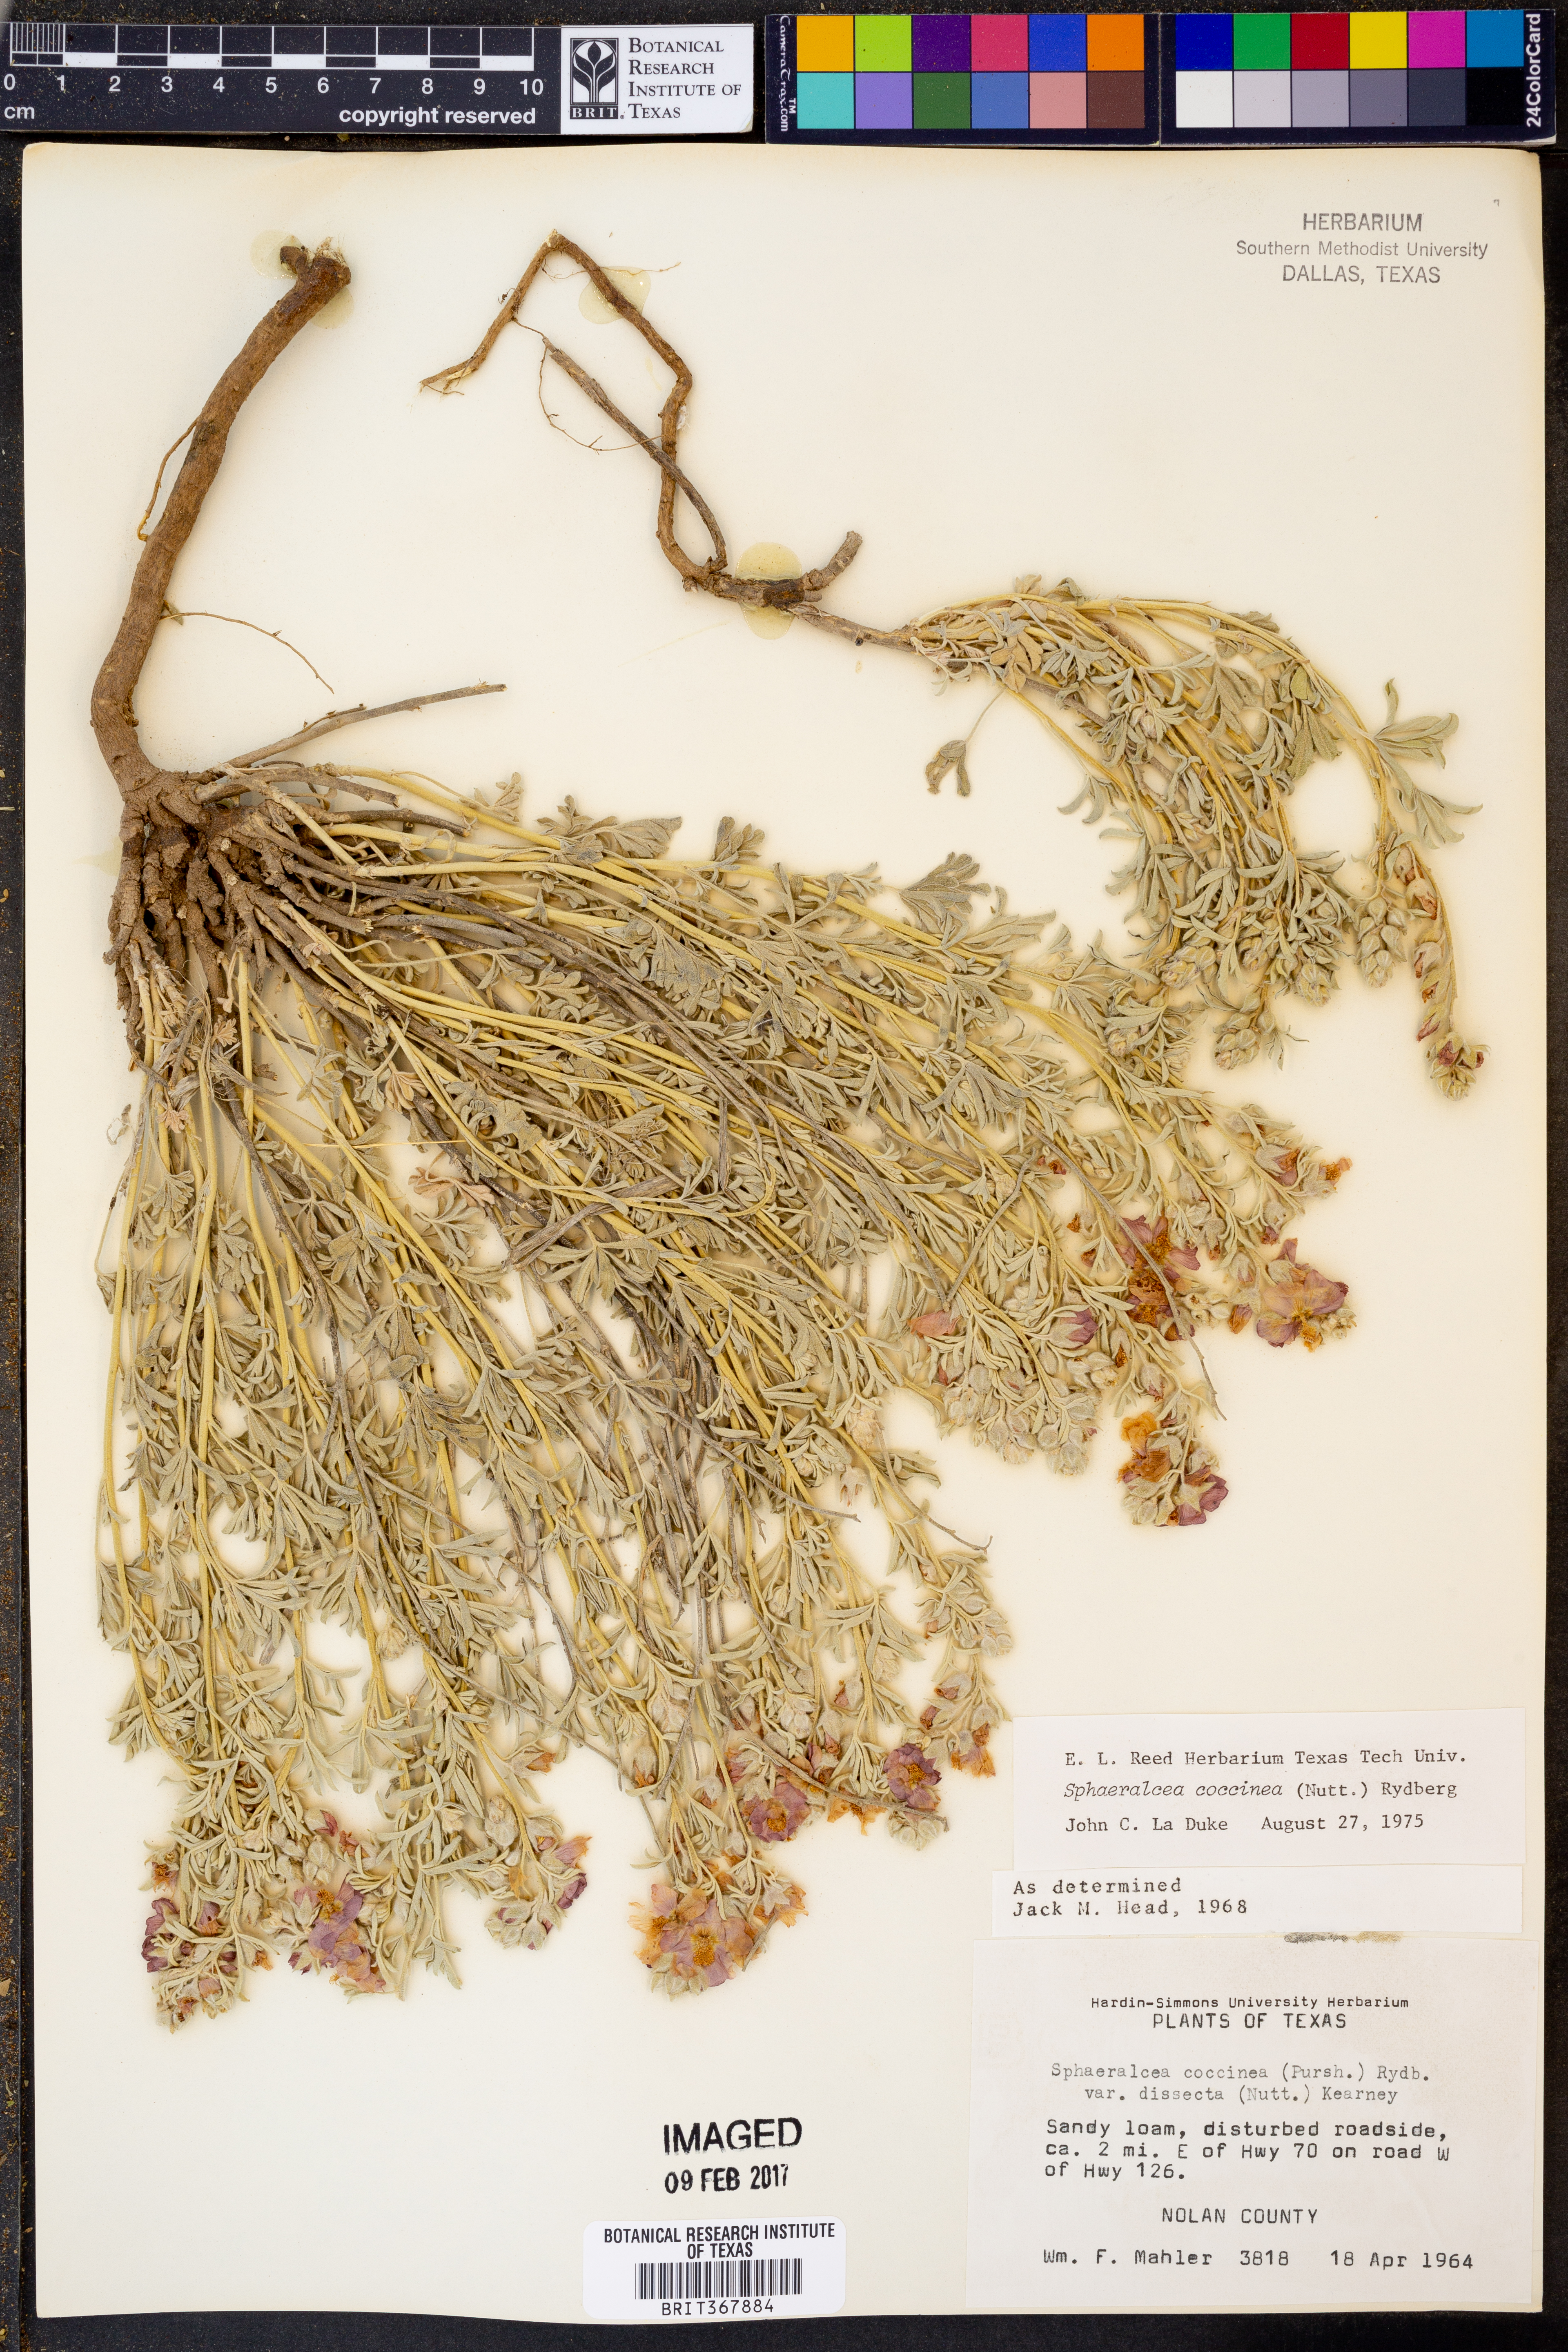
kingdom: Plantae
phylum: Tracheophyta
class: Magnoliopsida
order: Malvales
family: Malvaceae
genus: Sphaeralcea
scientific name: Sphaeralcea coccinea
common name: Moss-rose
